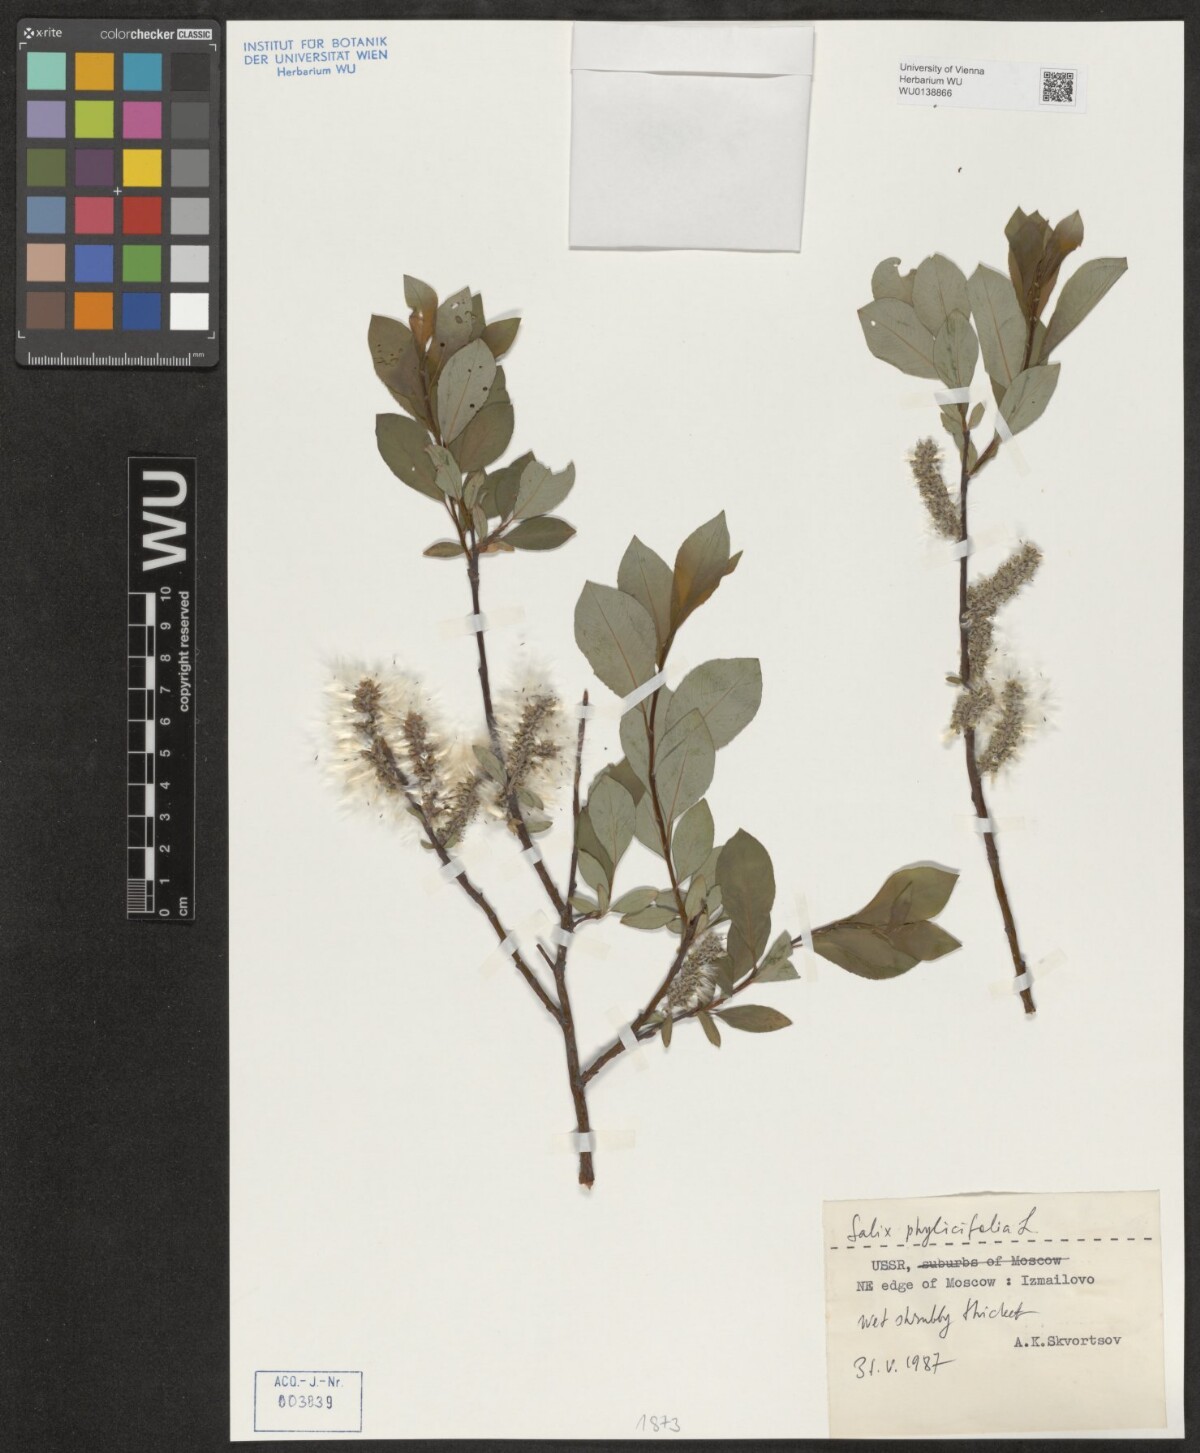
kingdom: Plantae
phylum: Tracheophyta
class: Magnoliopsida
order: Malpighiales
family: Salicaceae
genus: Salix
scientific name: Salix phylicifolia
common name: Tea-leaved willow
